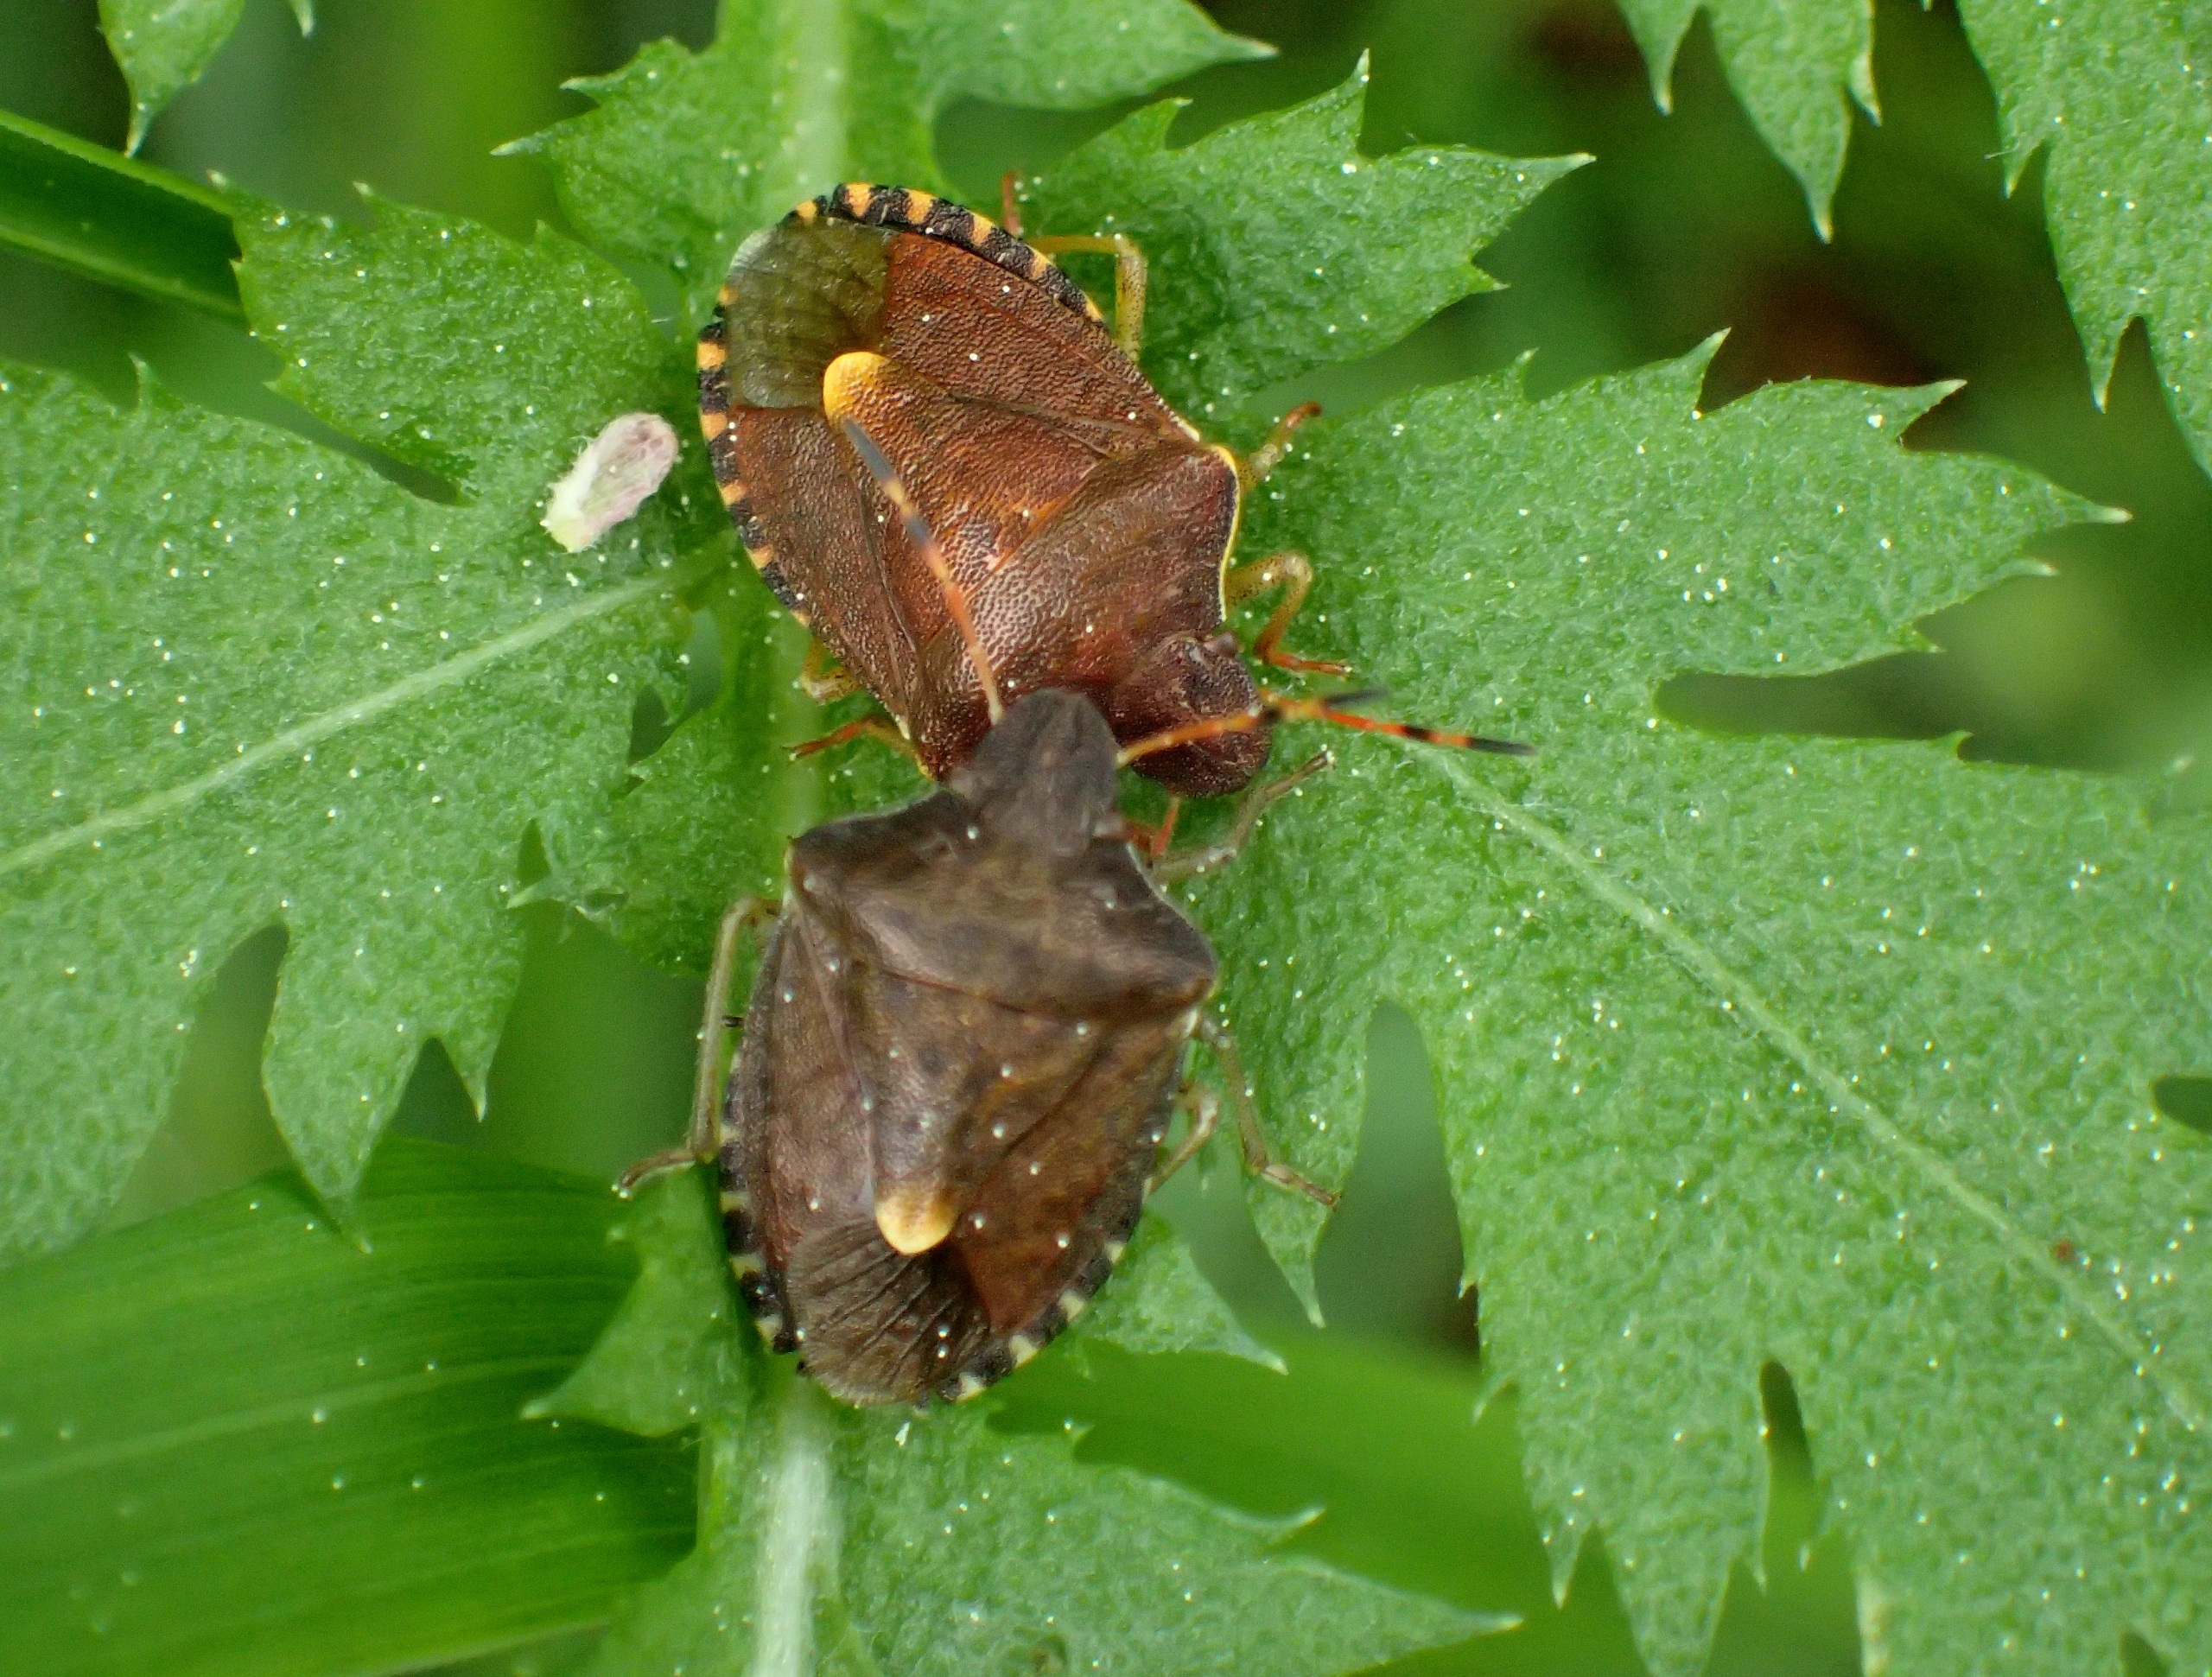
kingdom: Animalia
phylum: Arthropoda
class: Insecta
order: Hemiptera
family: Pentatomidae
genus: Holcostethus
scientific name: Holcostethus strictus
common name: Lille bærtæge
